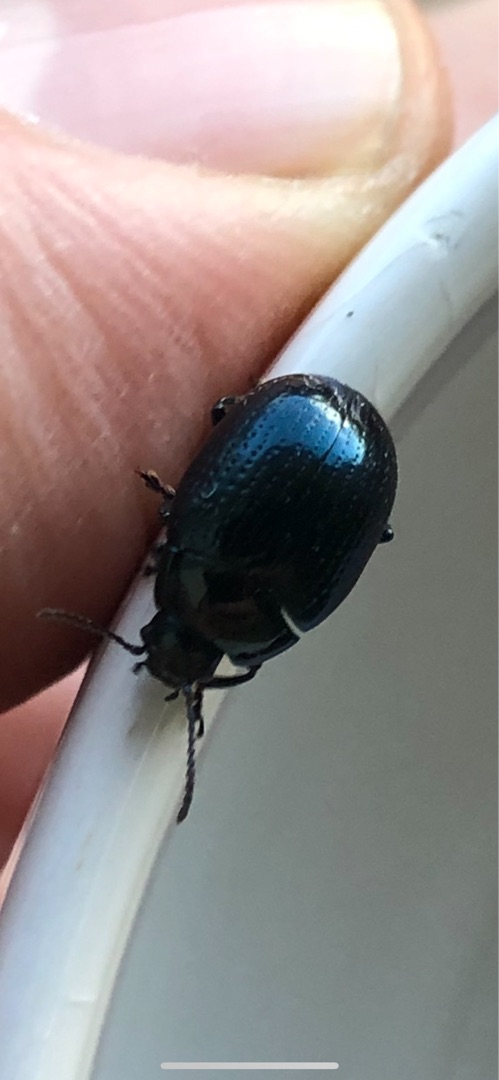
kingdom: Animalia
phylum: Arthropoda
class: Insecta
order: Coleoptera
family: Chrysomelidae
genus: Chrysolina
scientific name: Chrysolina oricalcia
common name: Rækkepunkteret guldbille
